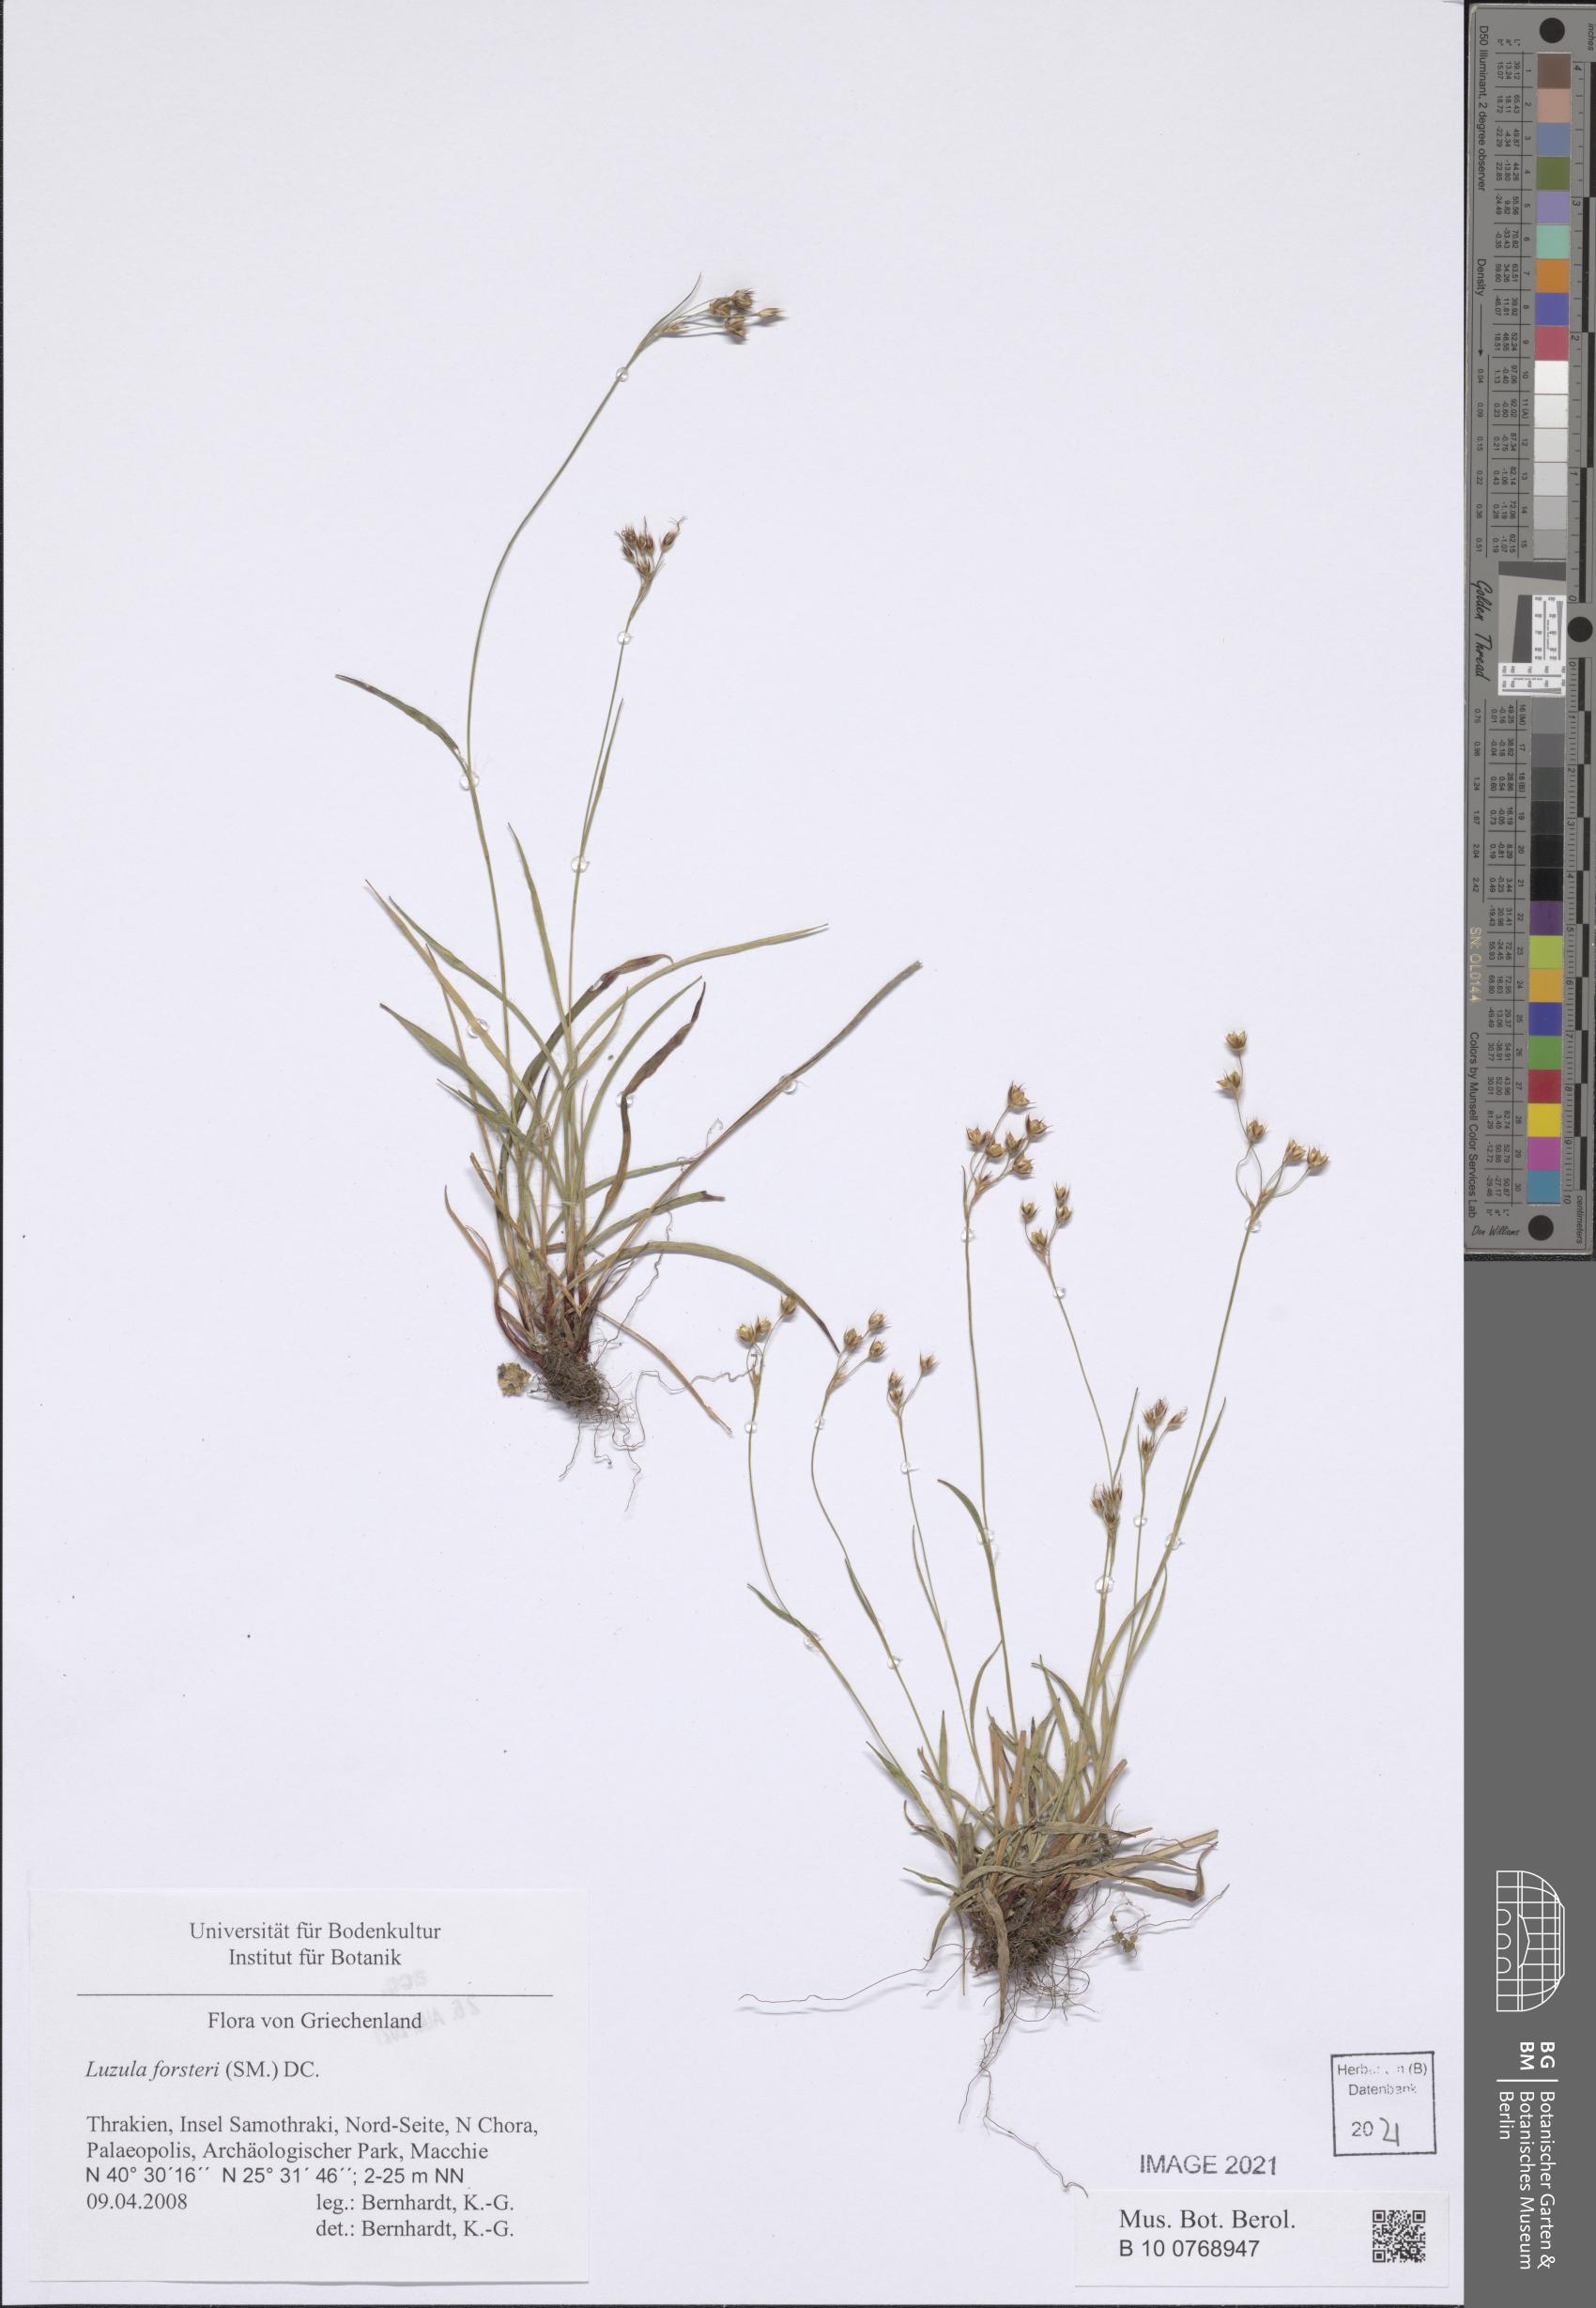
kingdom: Plantae
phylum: Tracheophyta
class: Liliopsida
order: Poales
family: Juncaceae
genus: Luzula
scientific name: Luzula forsteri
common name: Southern wood-rush
